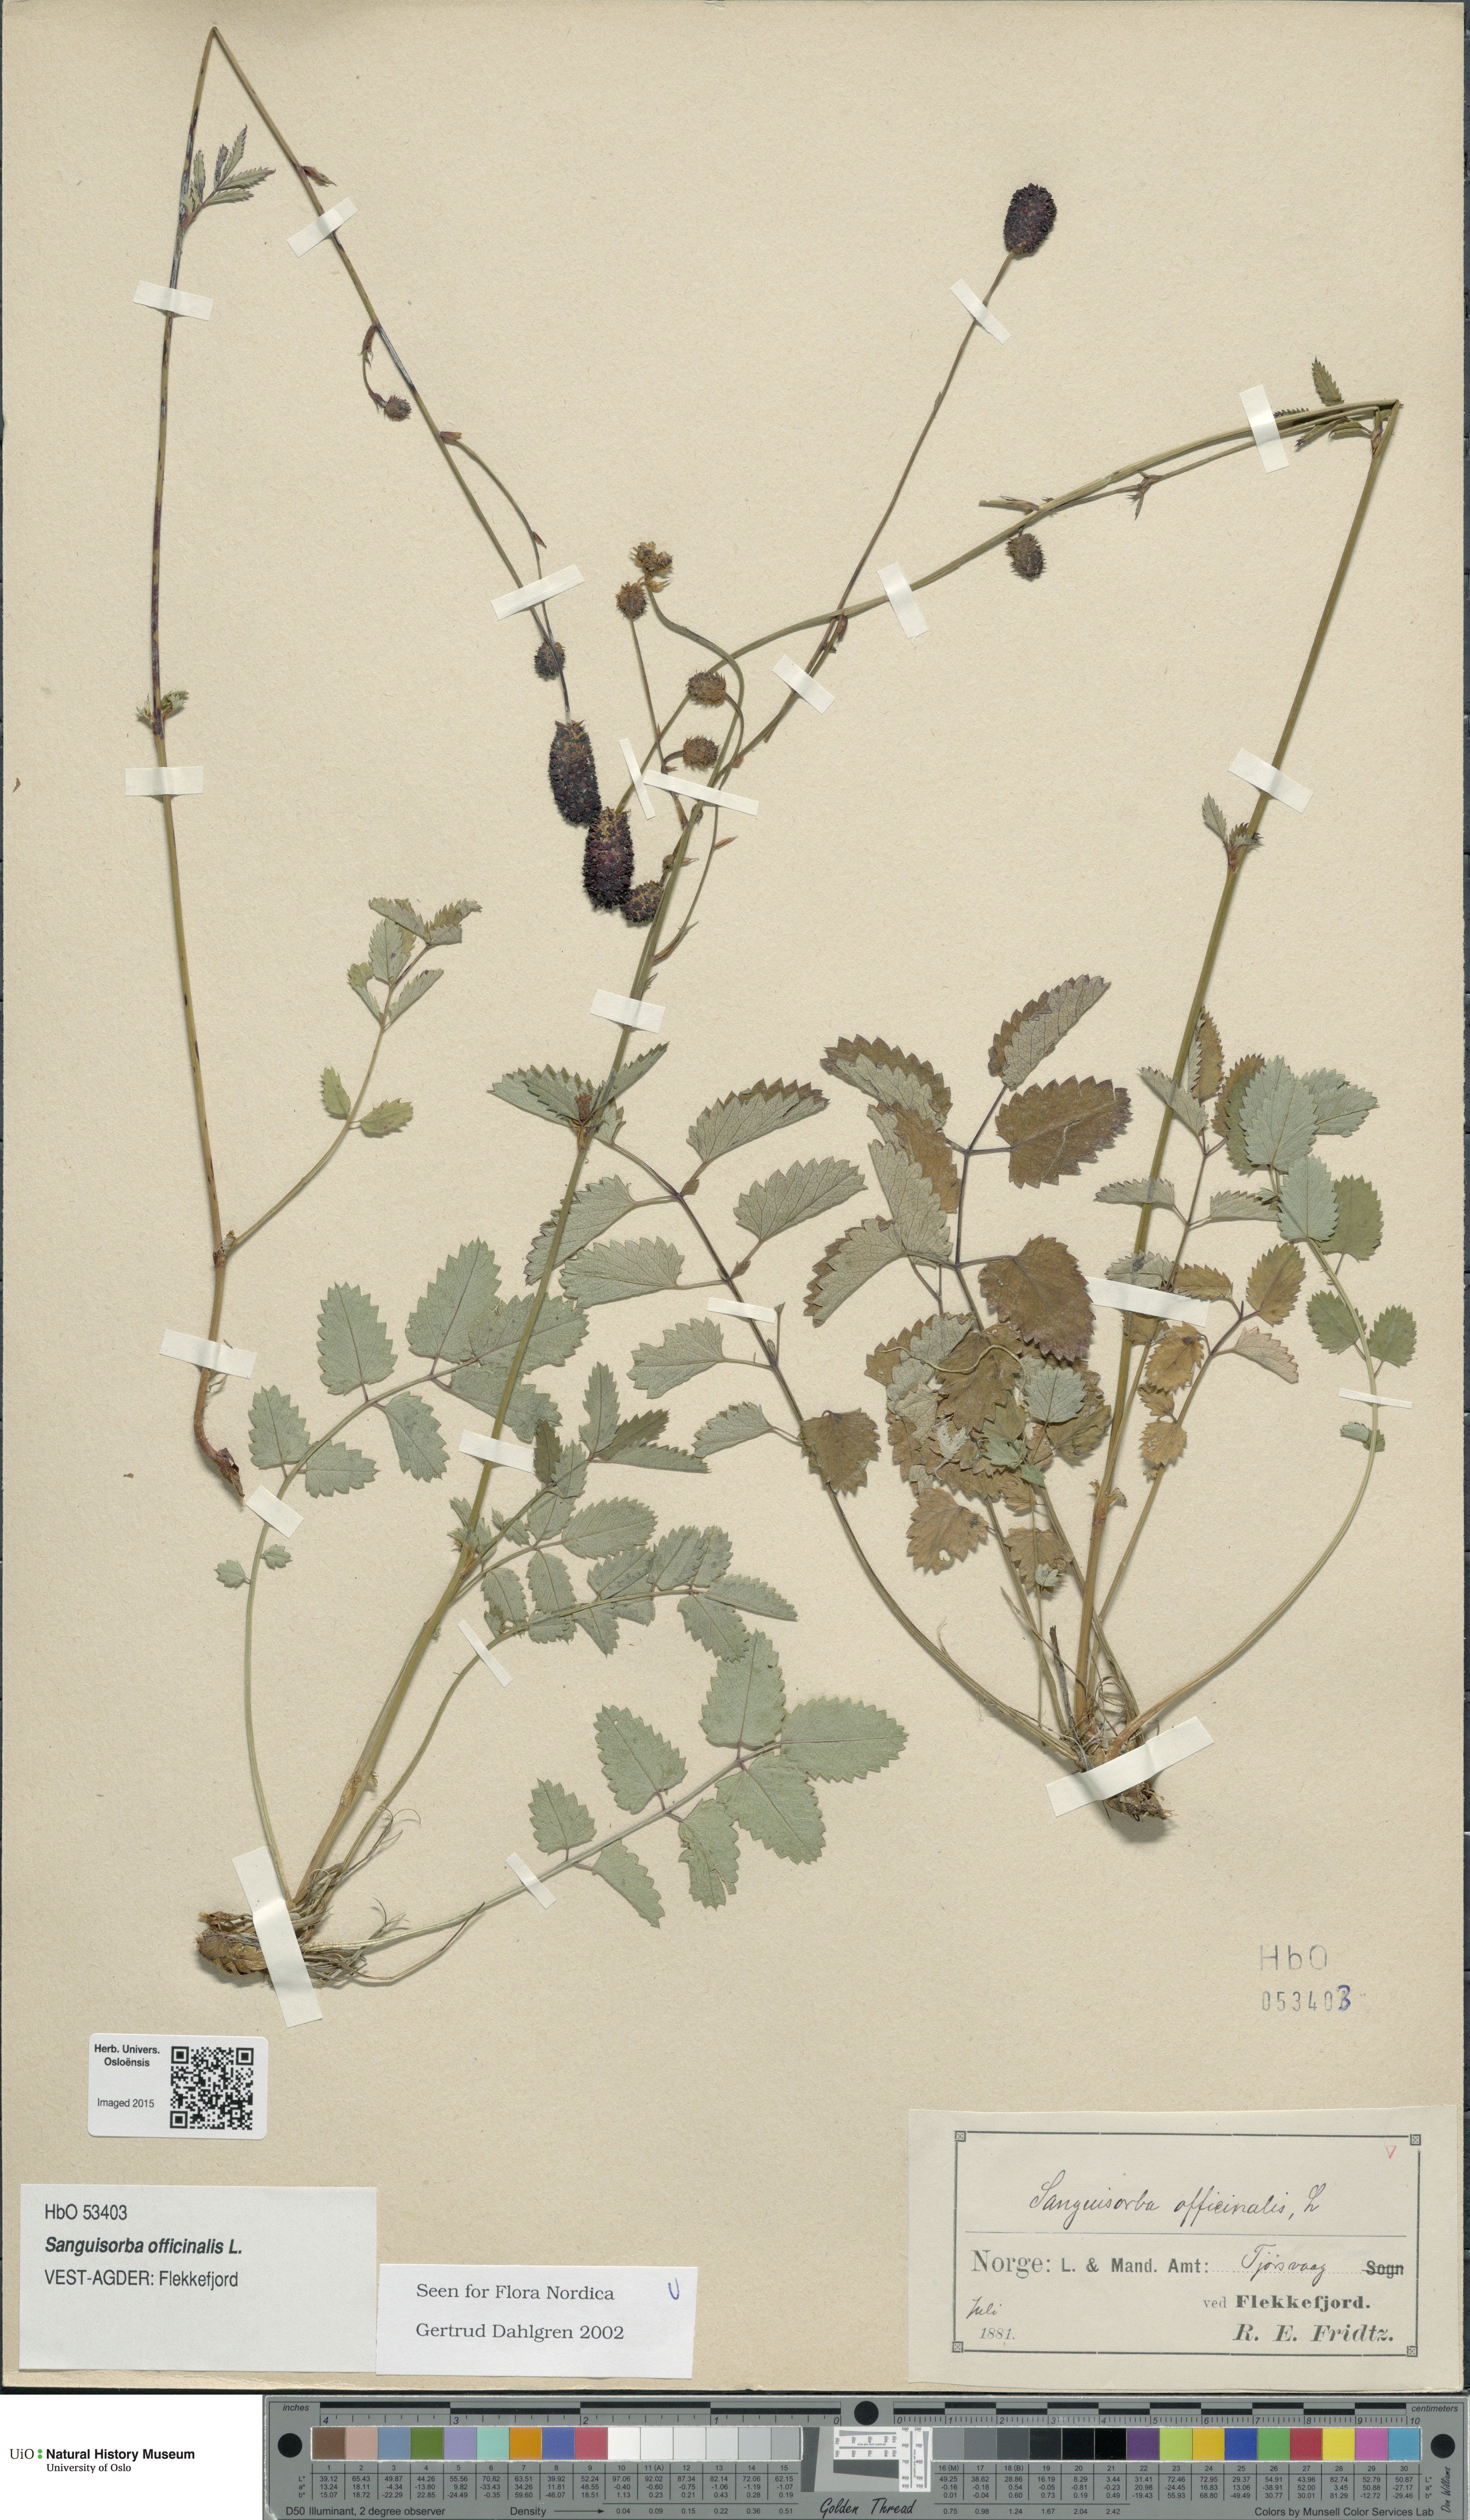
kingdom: Plantae
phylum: Tracheophyta
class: Magnoliopsida
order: Rosales
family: Rosaceae
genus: Sanguisorba
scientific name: Sanguisorba officinalis
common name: Great burnet
